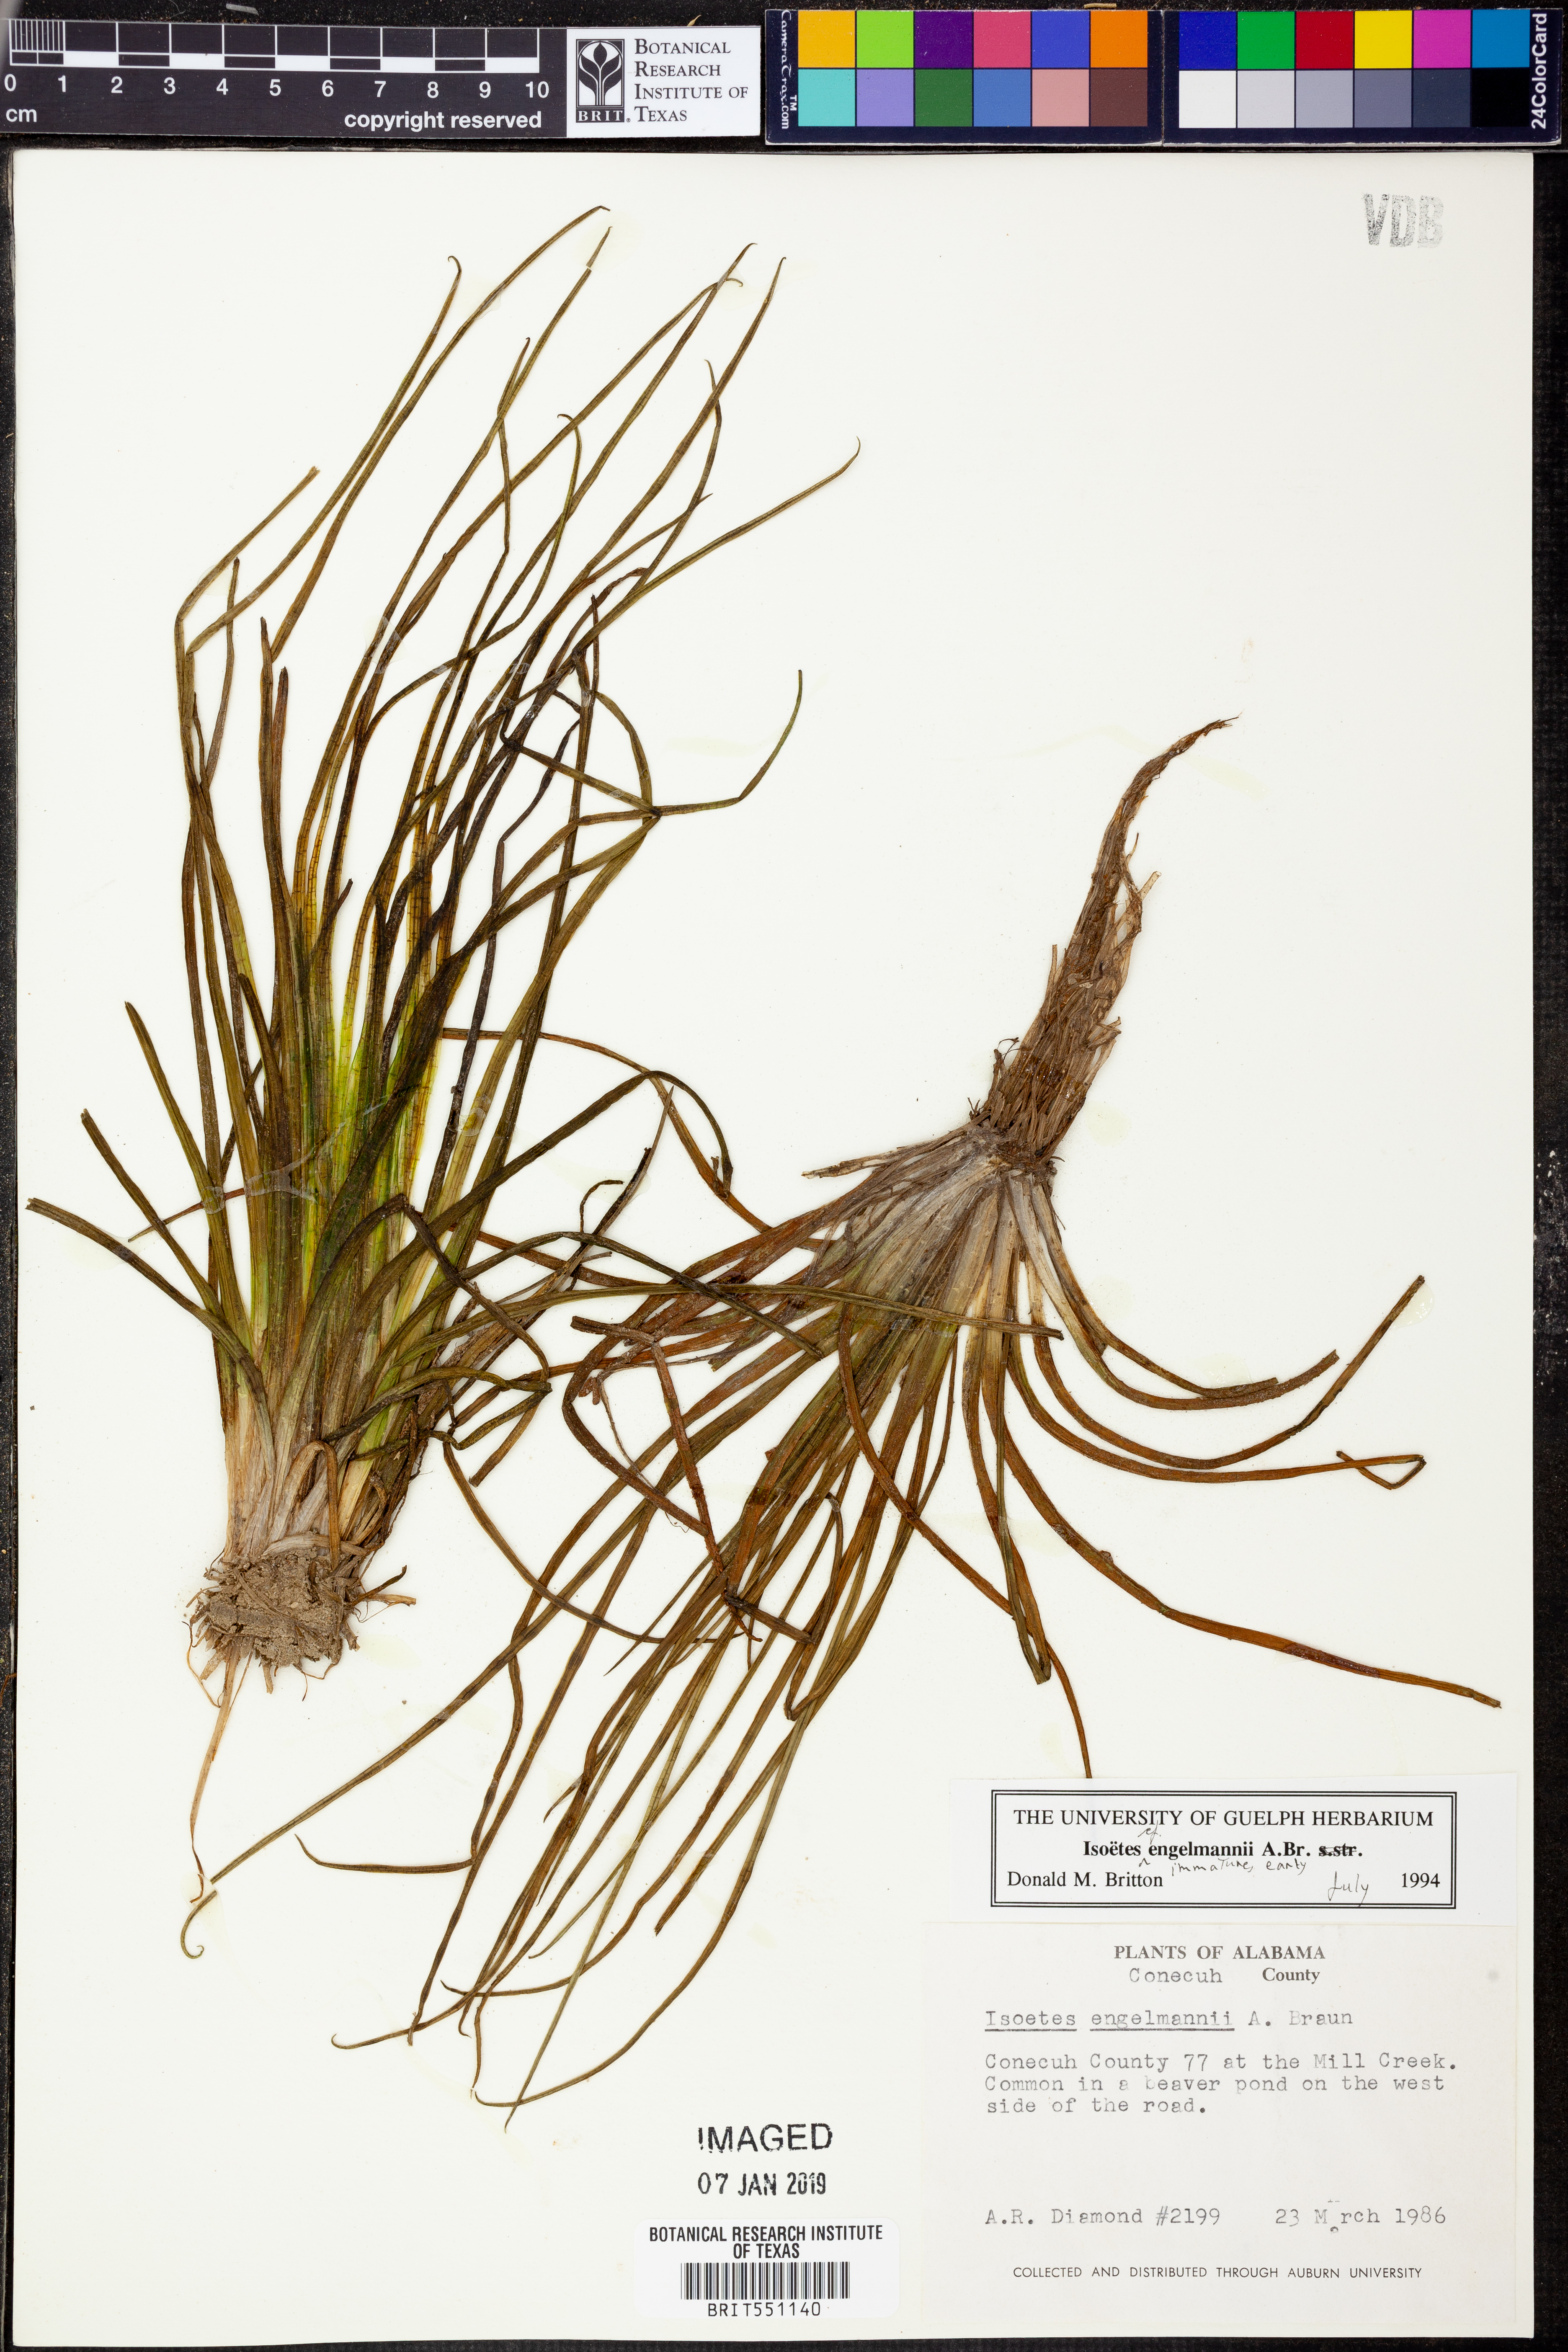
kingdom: Plantae
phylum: Tracheophyta
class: Lycopodiopsida
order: Isoetales
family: Isoetaceae
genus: Isoetes
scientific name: Isoetes engelmannii
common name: Engelmann's quillwort
